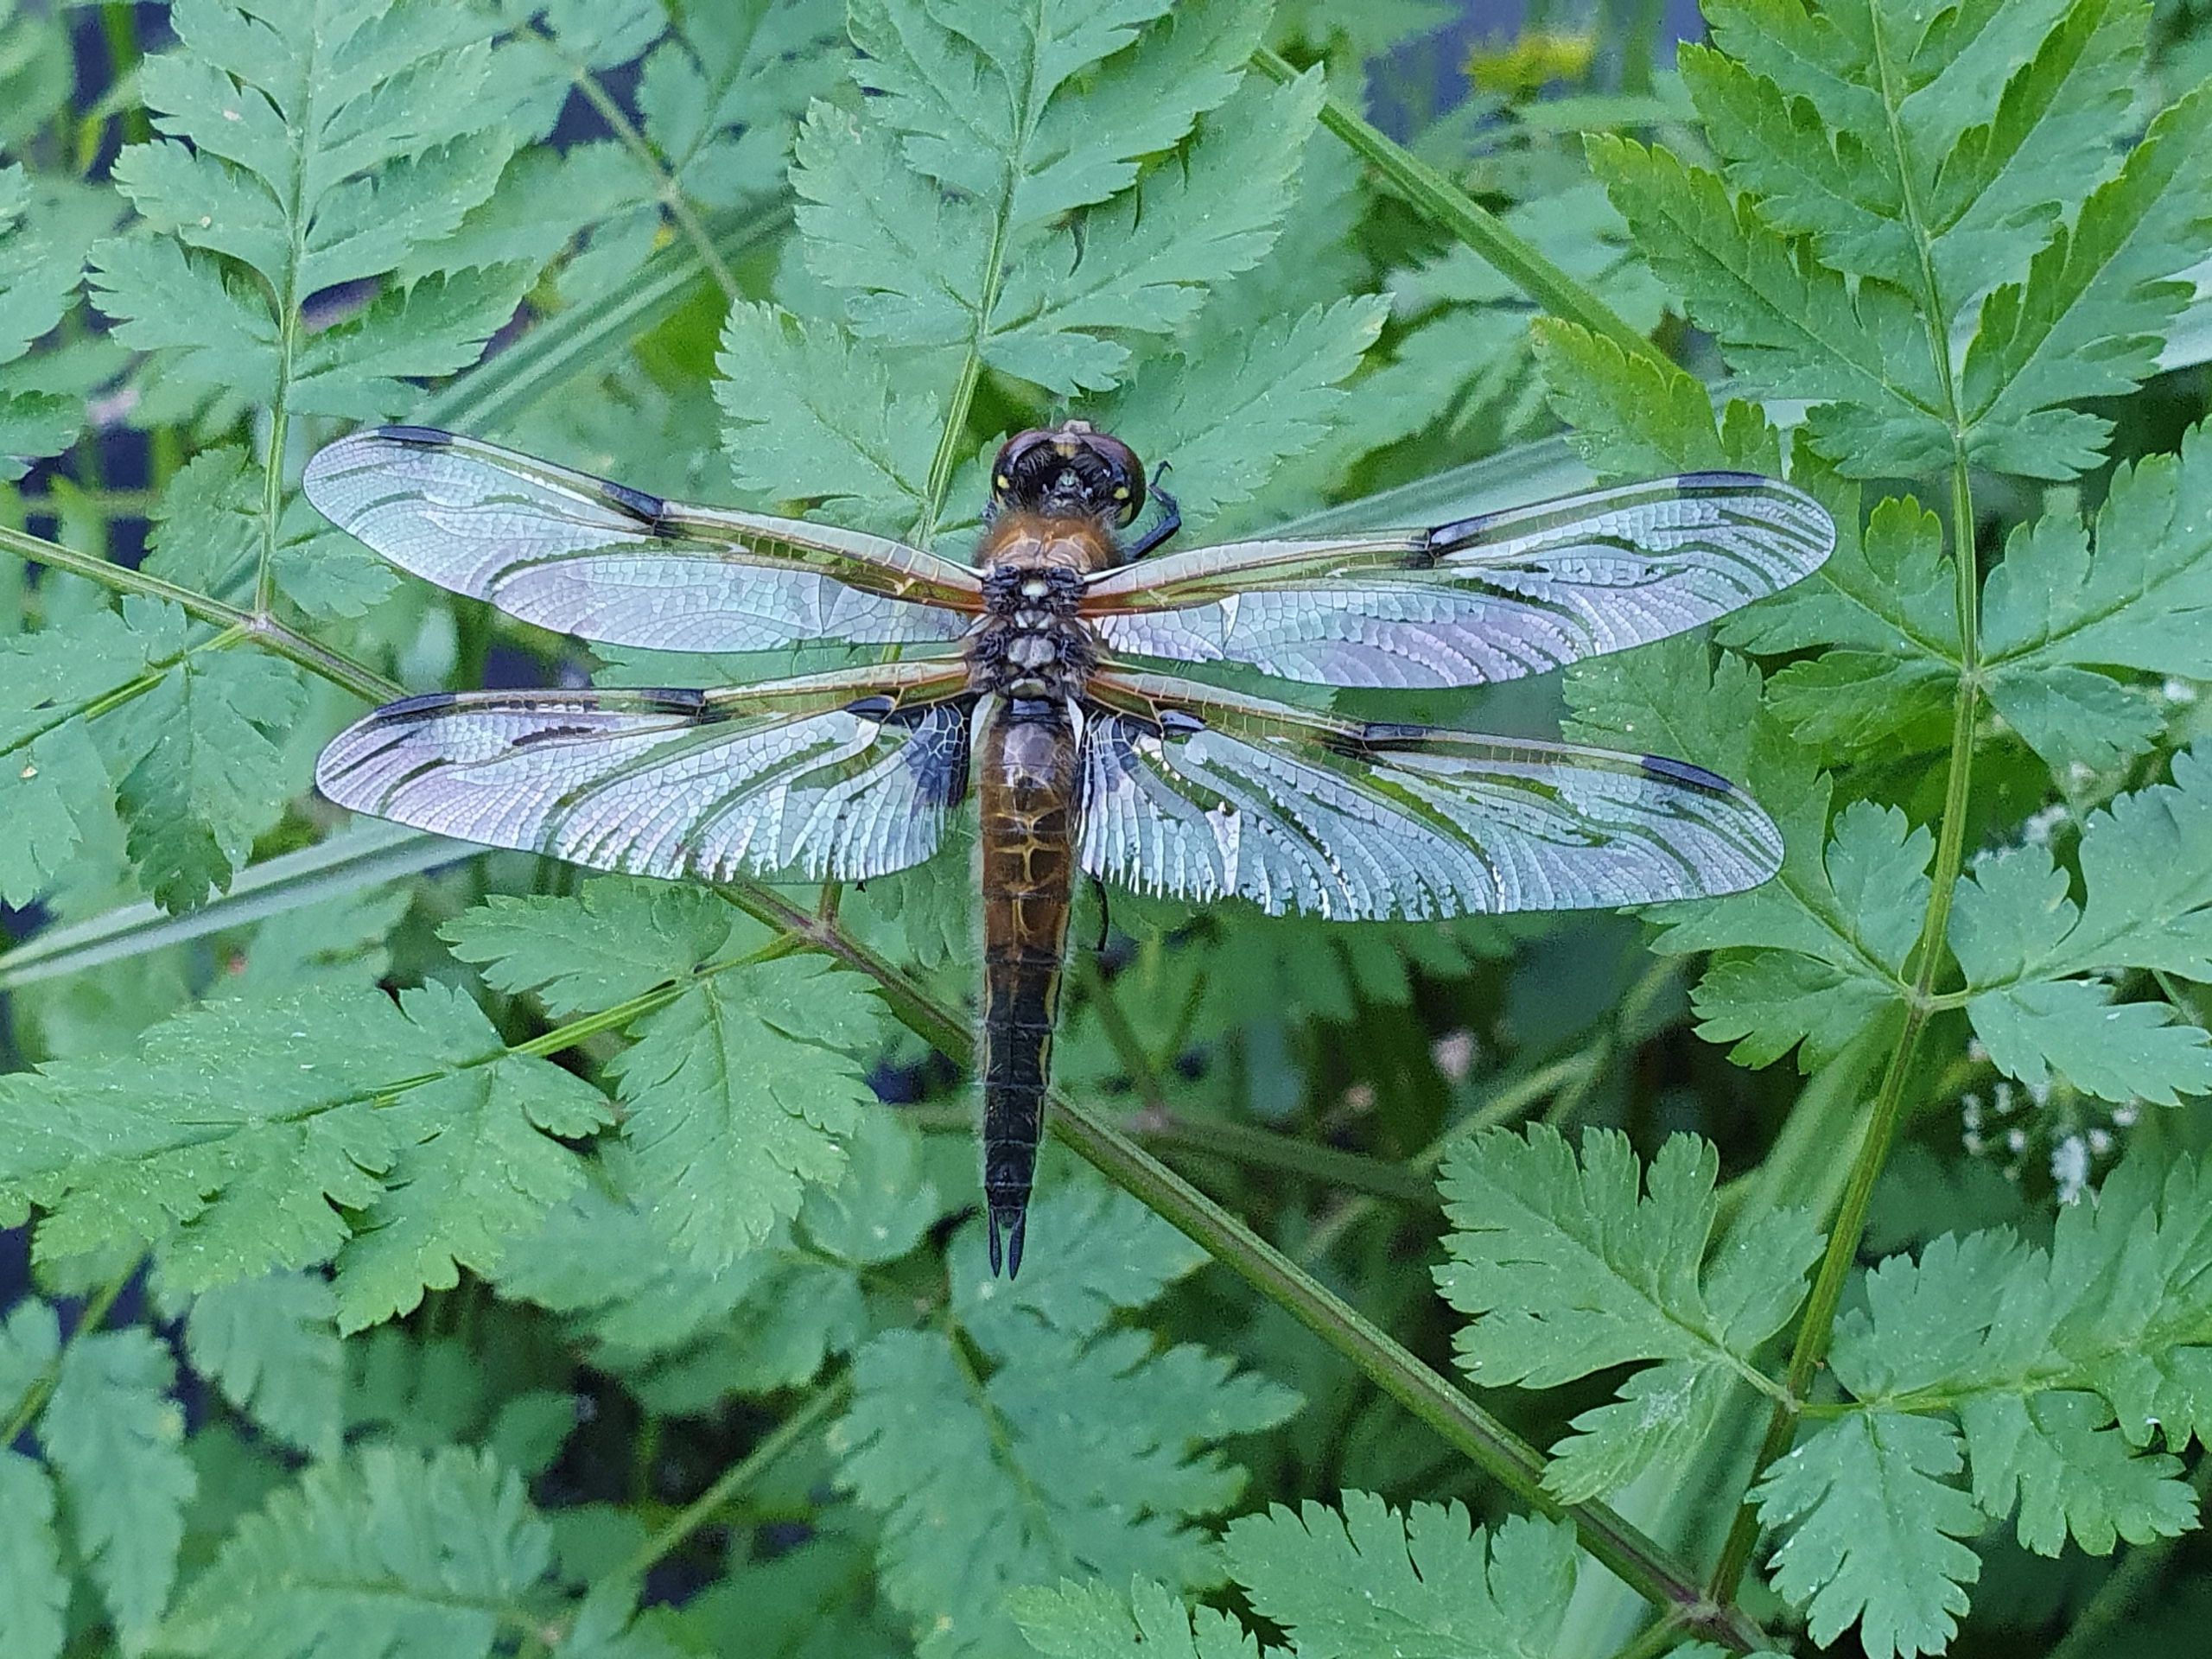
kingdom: Animalia
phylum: Arthropoda
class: Insecta
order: Odonata
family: Libellulidae
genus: Libellula
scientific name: Libellula quadrimaculata
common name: Fireplettet libel
